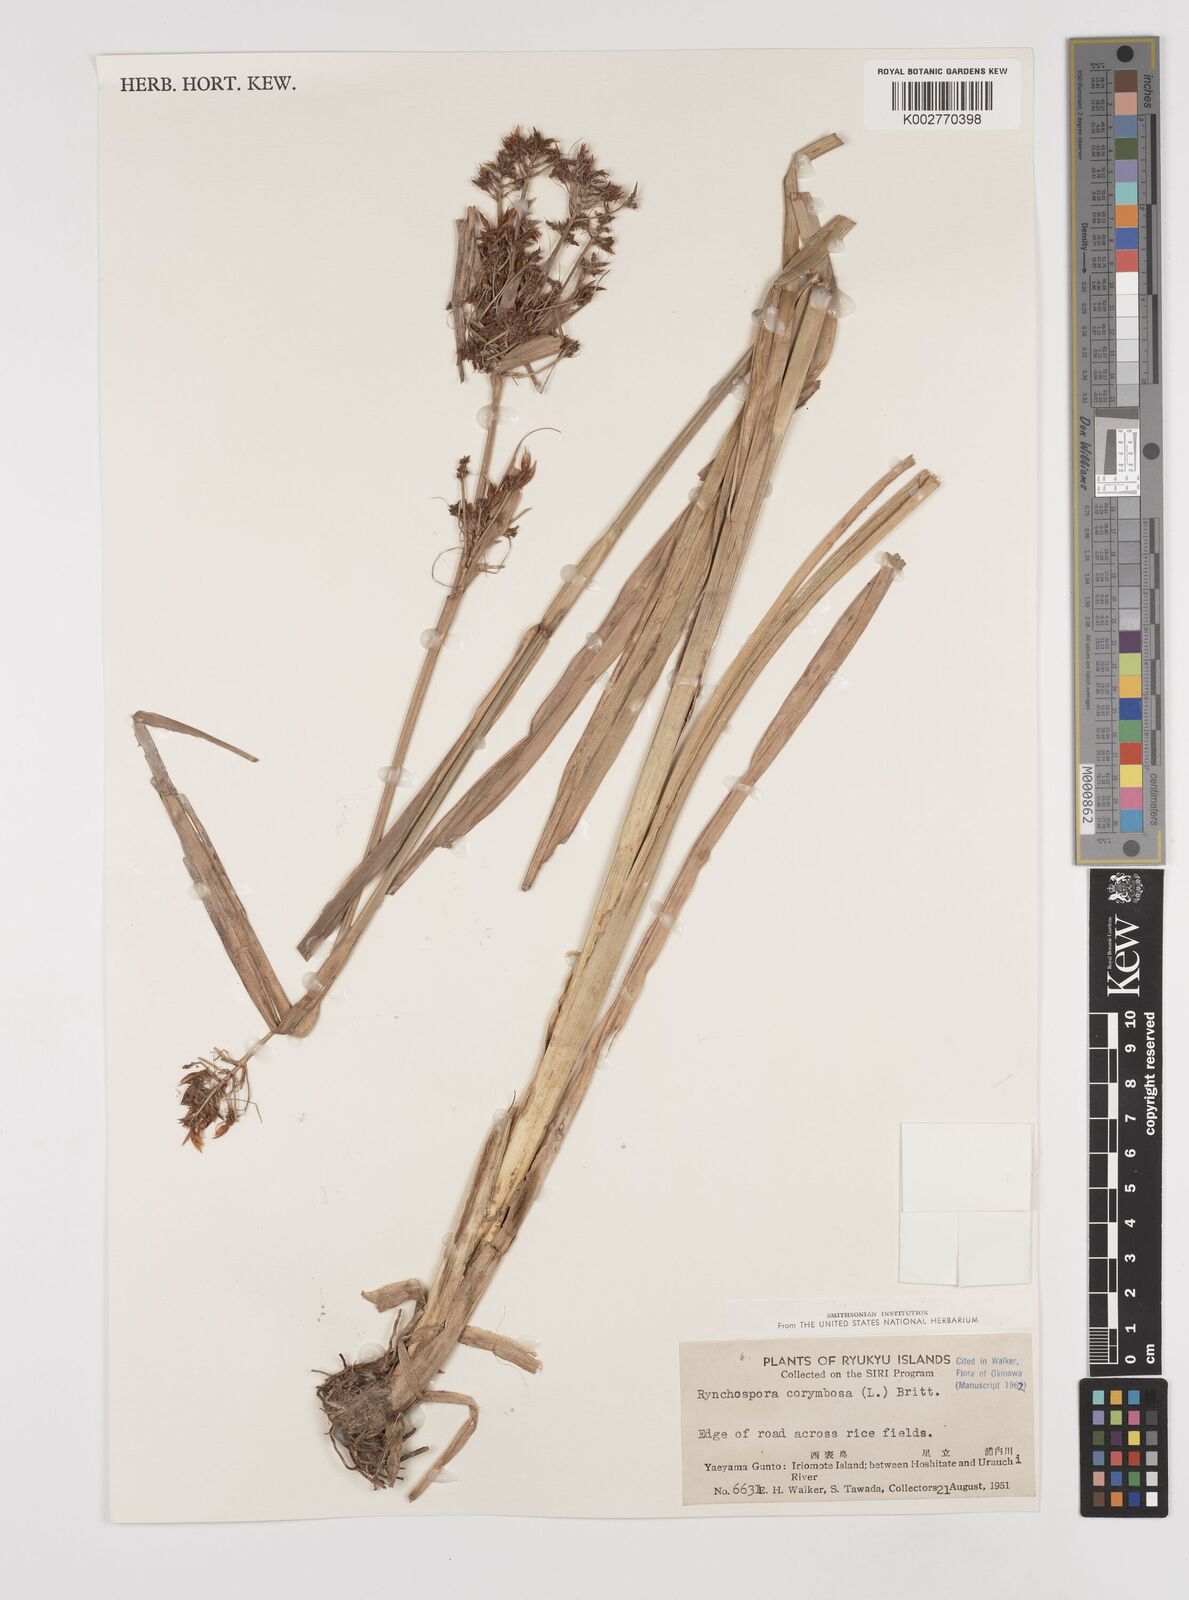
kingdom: Plantae
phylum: Tracheophyta
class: Liliopsida
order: Poales
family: Cyperaceae
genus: Rhynchospora
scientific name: Rhynchospora corymbosa
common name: Golden beak sedge
